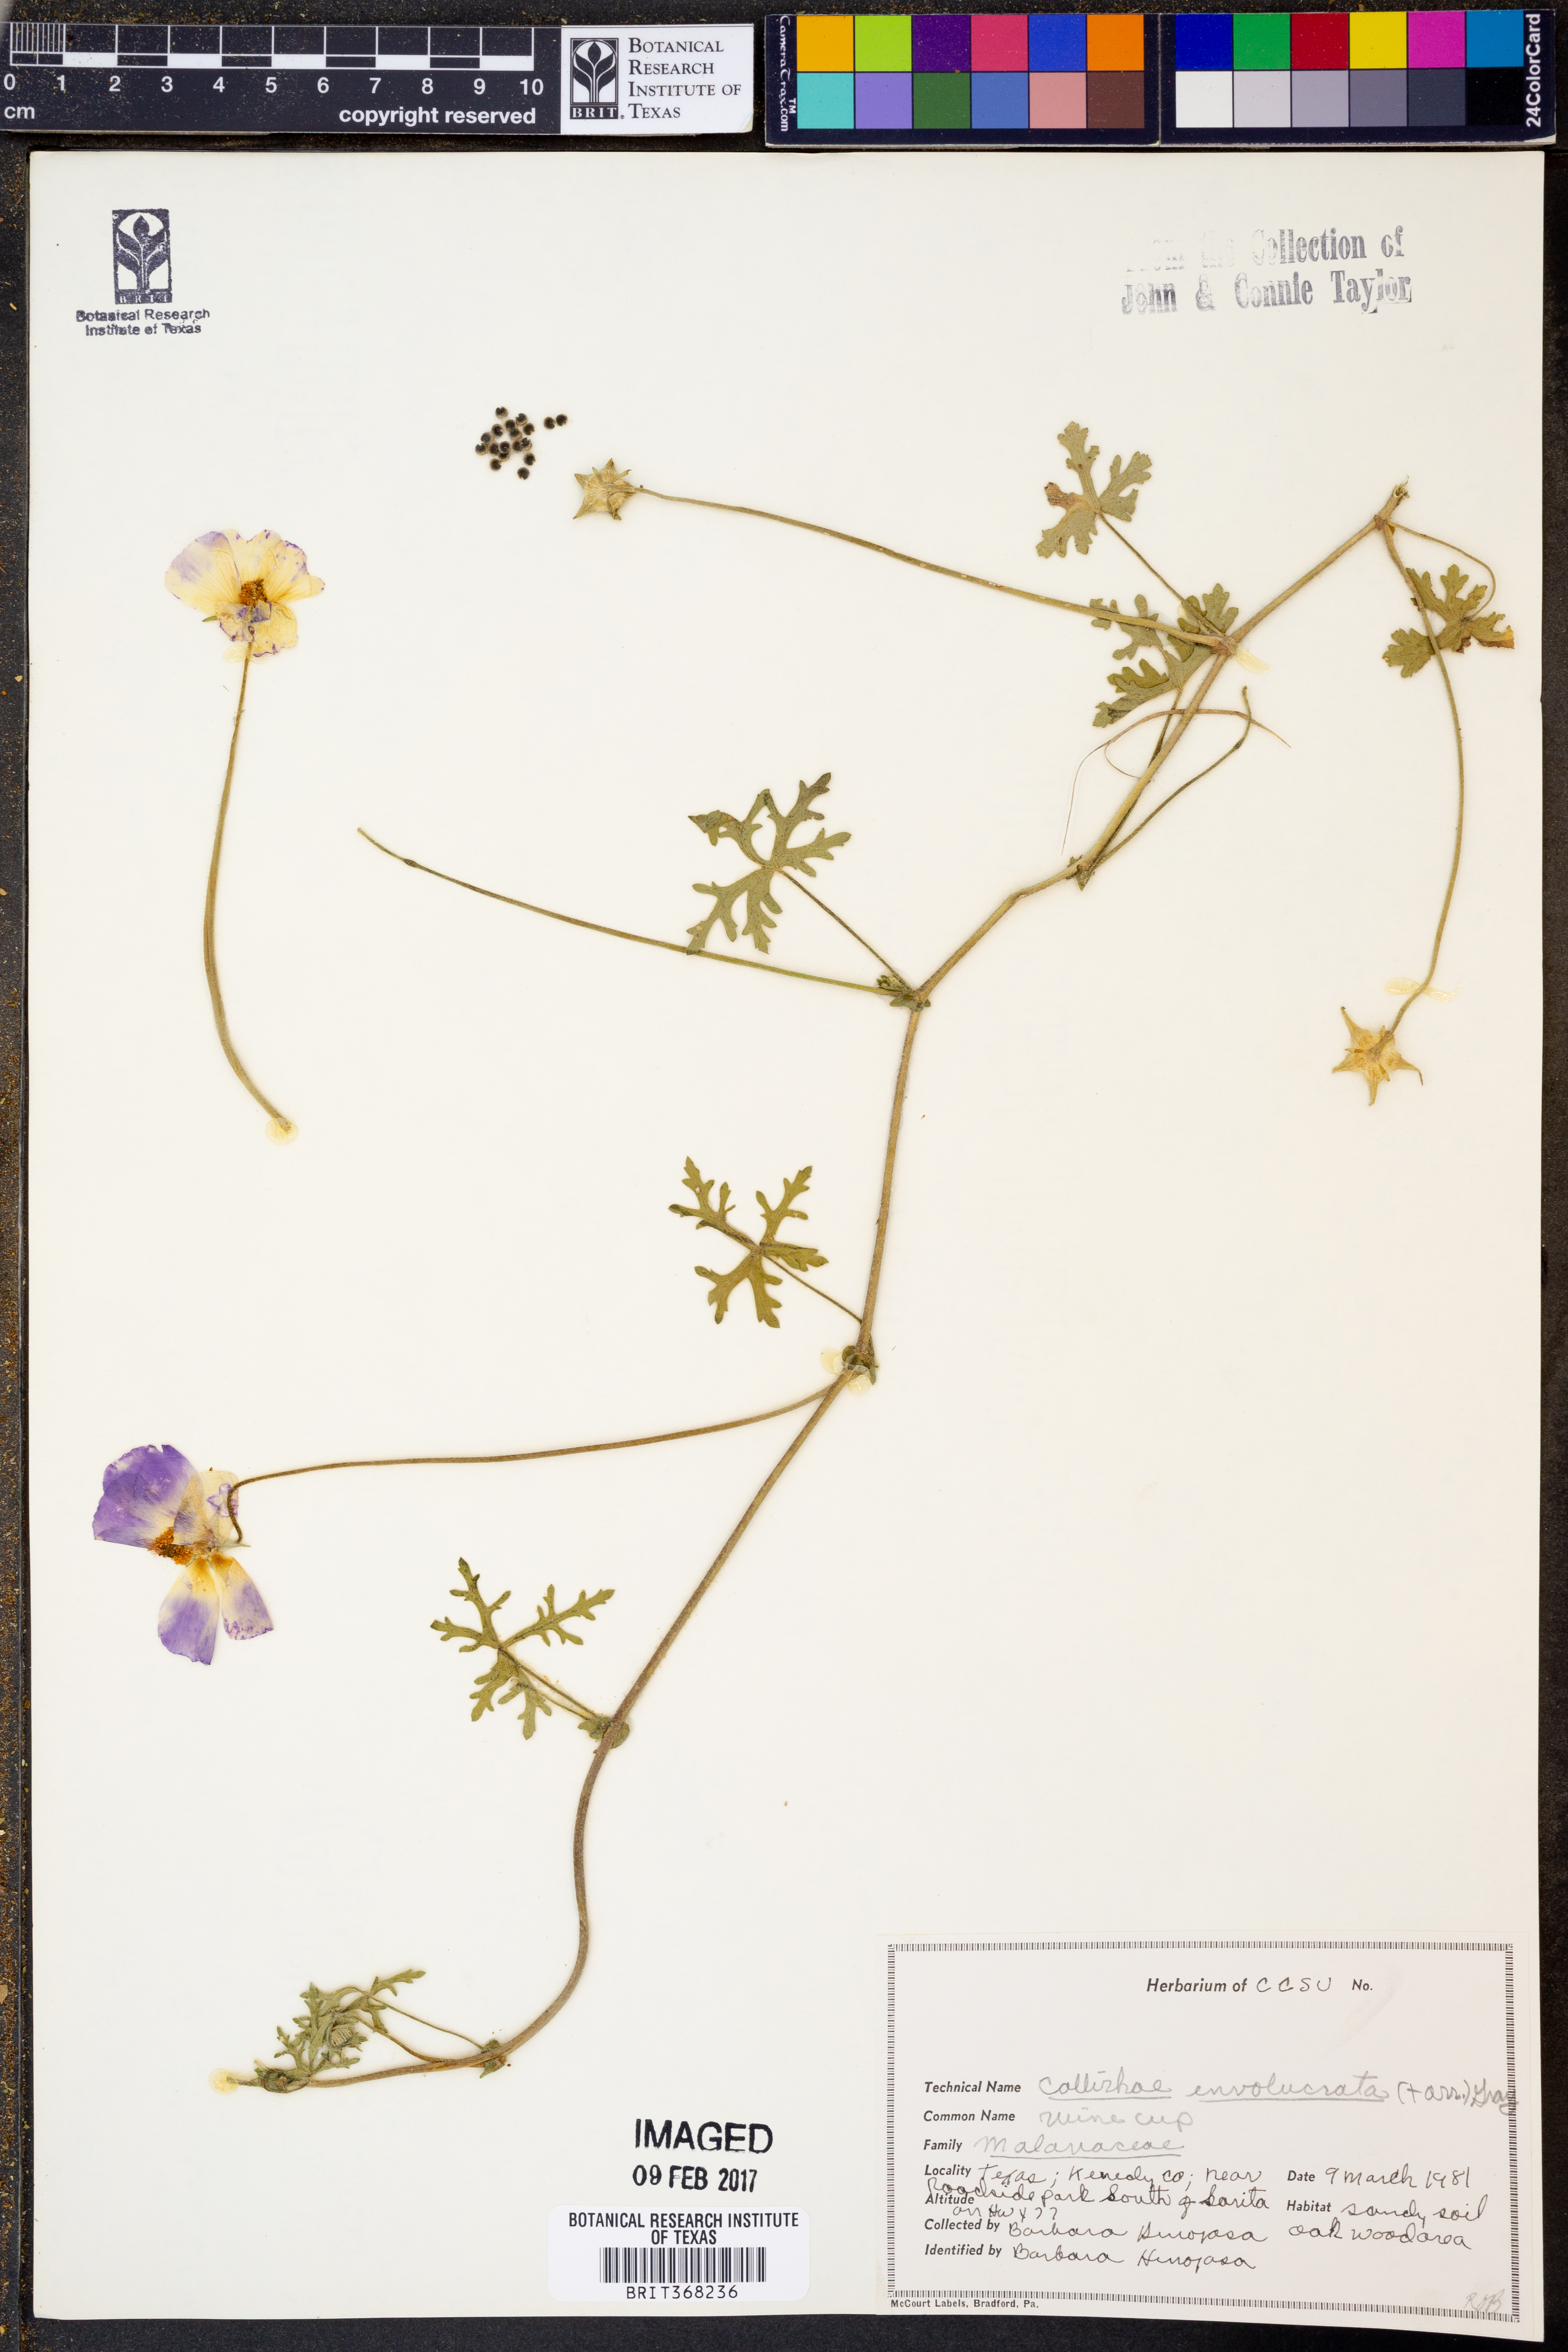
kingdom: Plantae
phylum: Tracheophyta
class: Magnoliopsida
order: Malvales
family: Malvaceae
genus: Callirhoe
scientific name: Callirhoe involucrata
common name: Purple poppy-mallow
